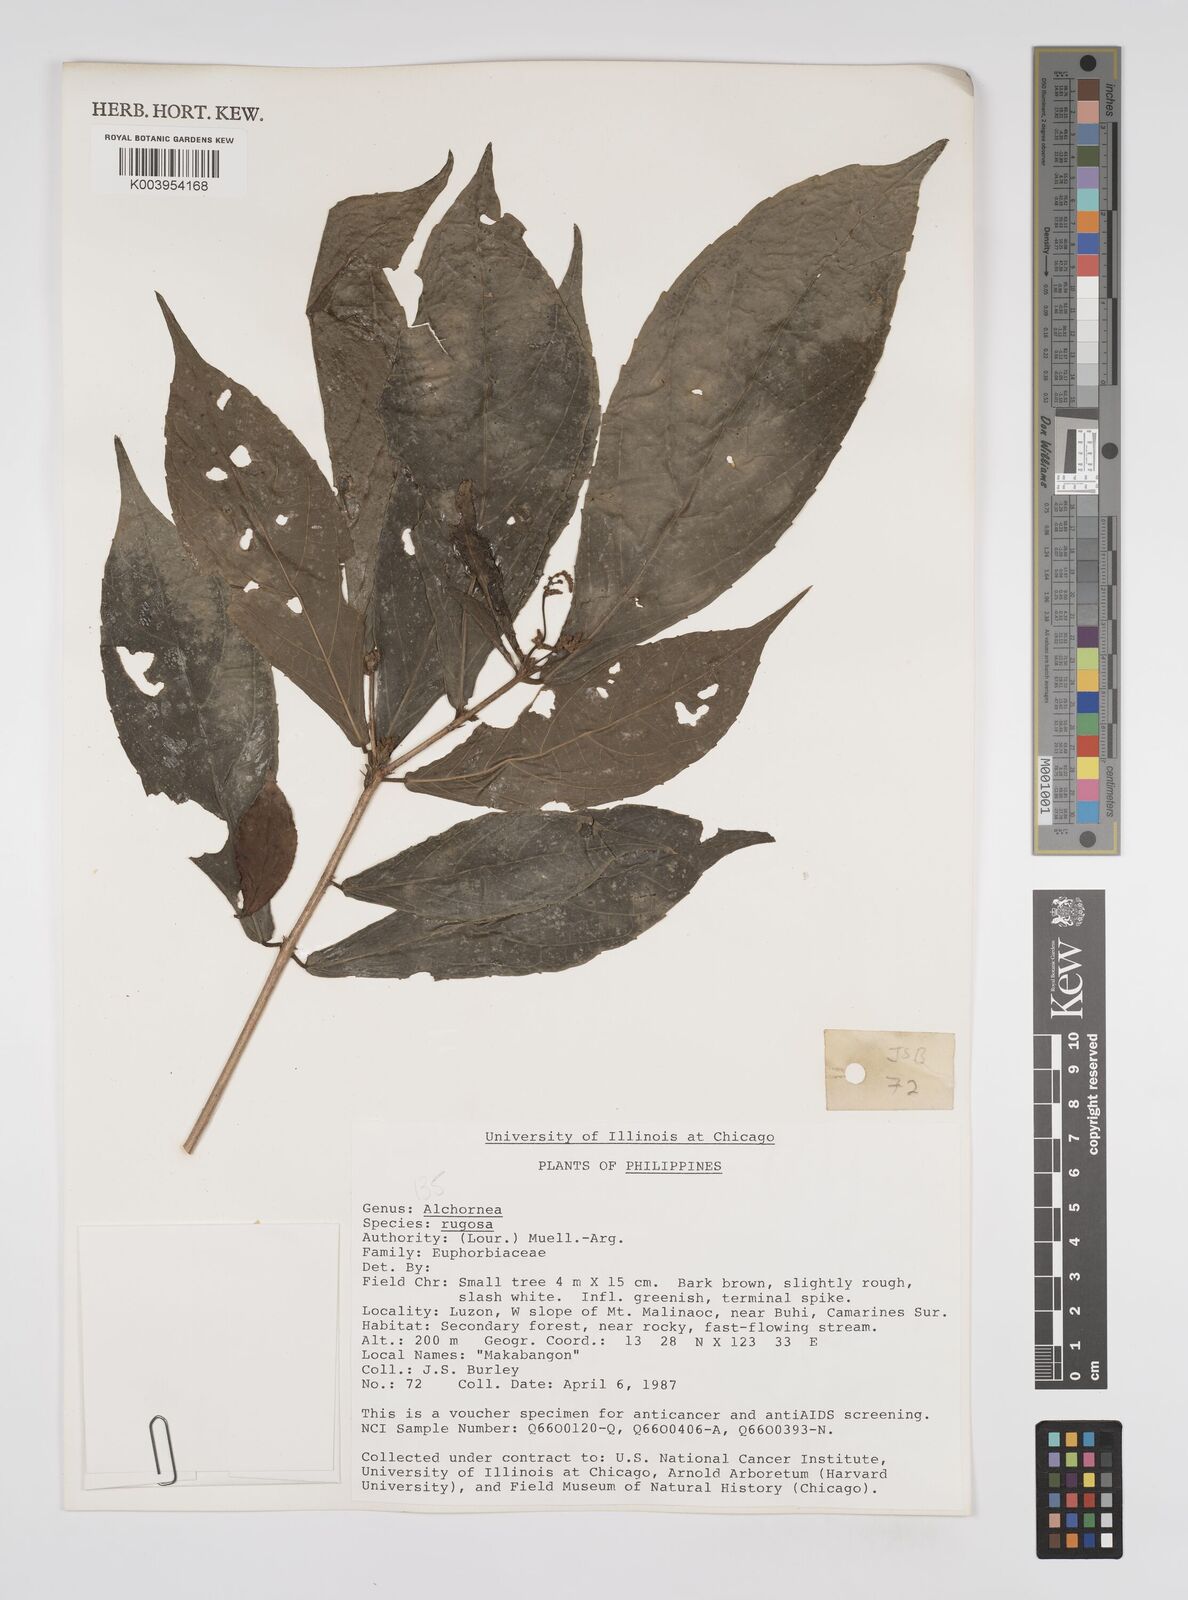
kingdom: Plantae
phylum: Tracheophyta
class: Magnoliopsida
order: Malpighiales
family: Euphorbiaceae
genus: Alchornea
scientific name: Alchornea rugosa
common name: Alchorntree
